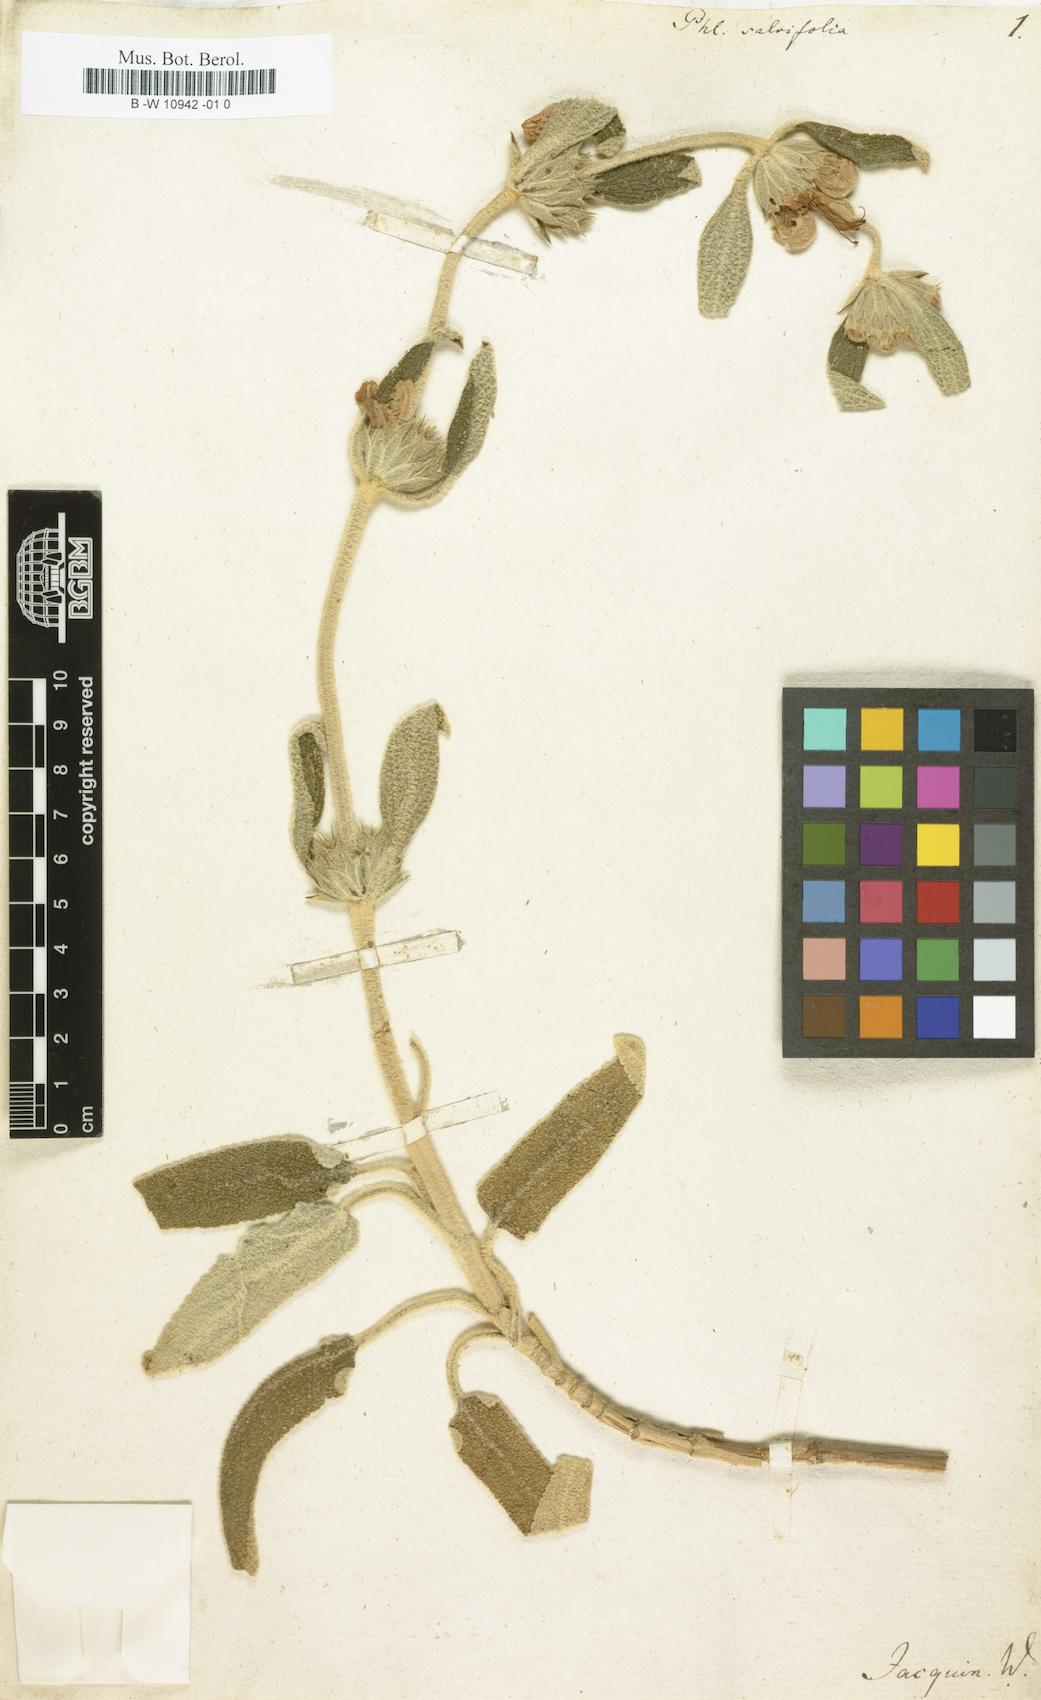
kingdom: Plantae
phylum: Tracheophyta
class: Magnoliopsida
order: Lamiales
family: Lamiaceae
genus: Phlomis
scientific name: Phlomis
